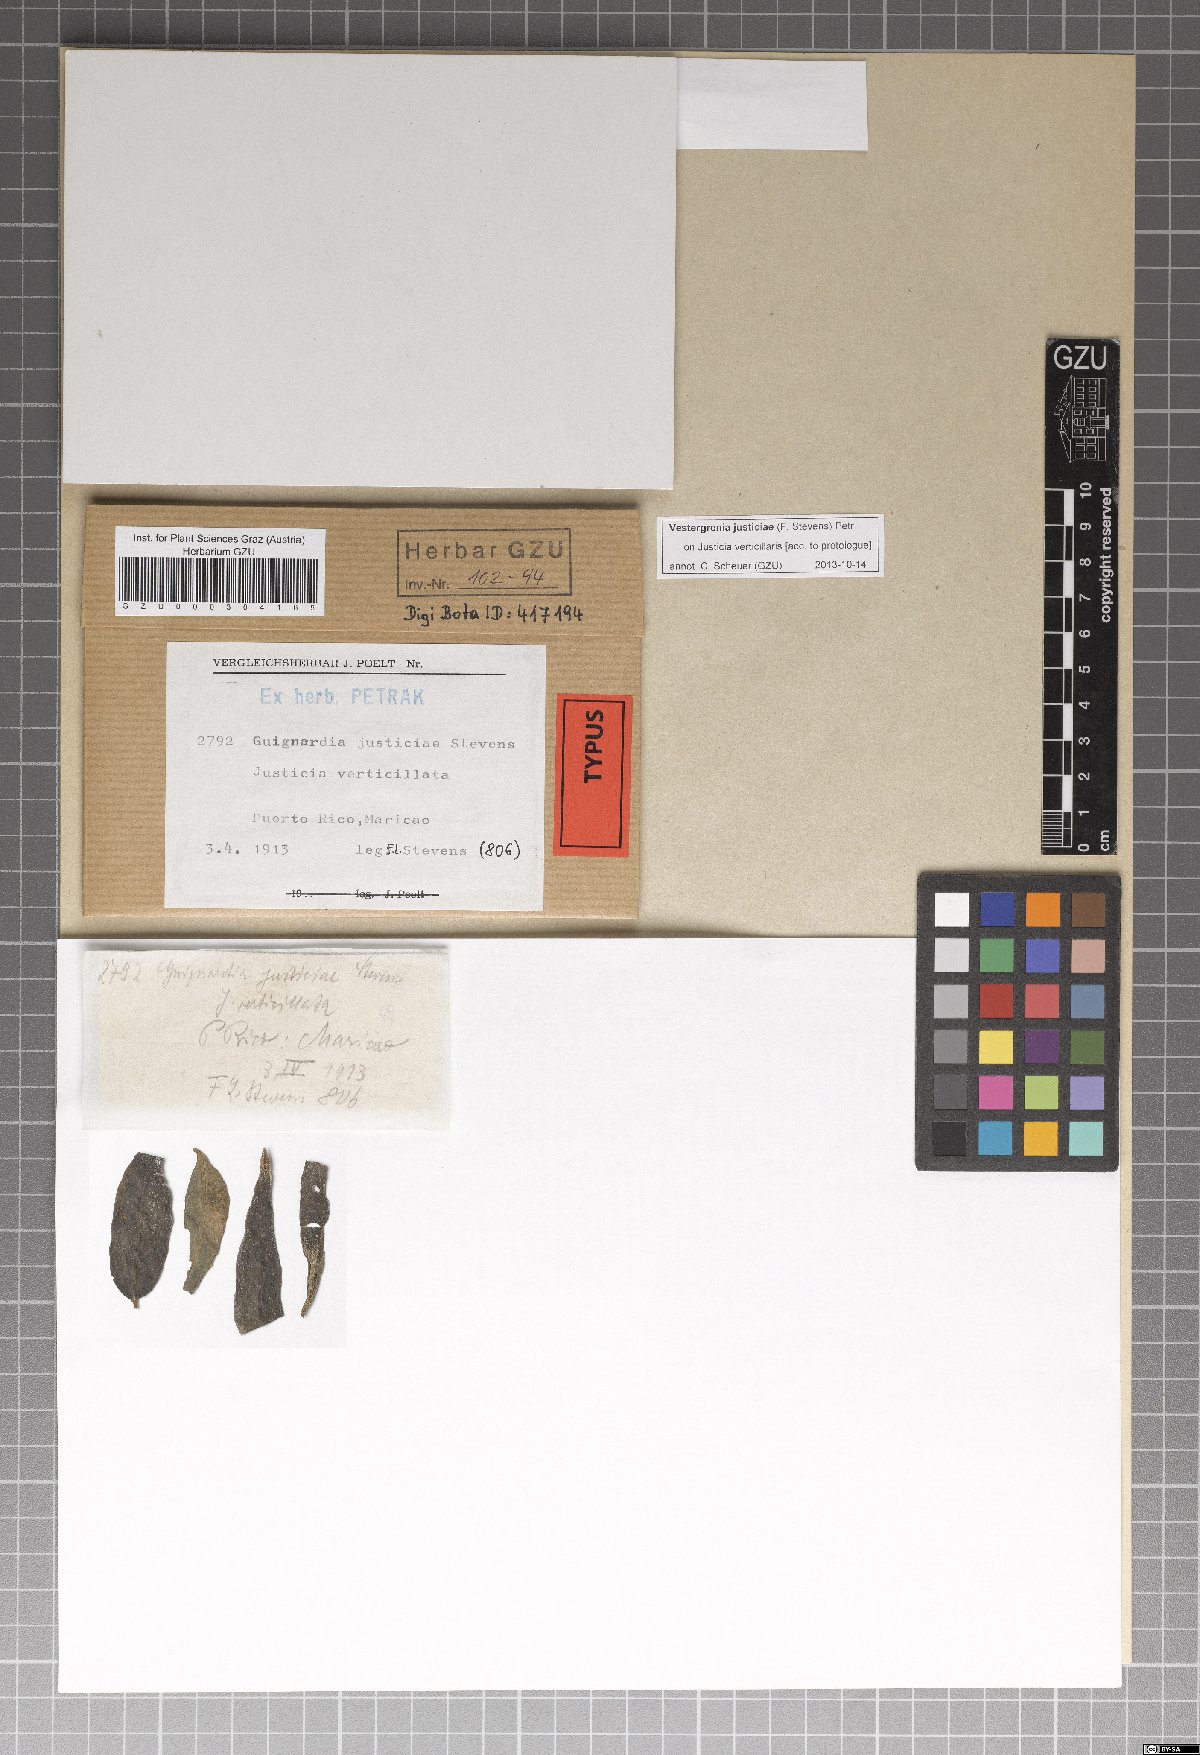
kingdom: Fungi
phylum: Ascomycota
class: Dothideomycetes
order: Dothideales
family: Dothideaceae
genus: Vestergrenia
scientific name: Vestergrenia justiciae
